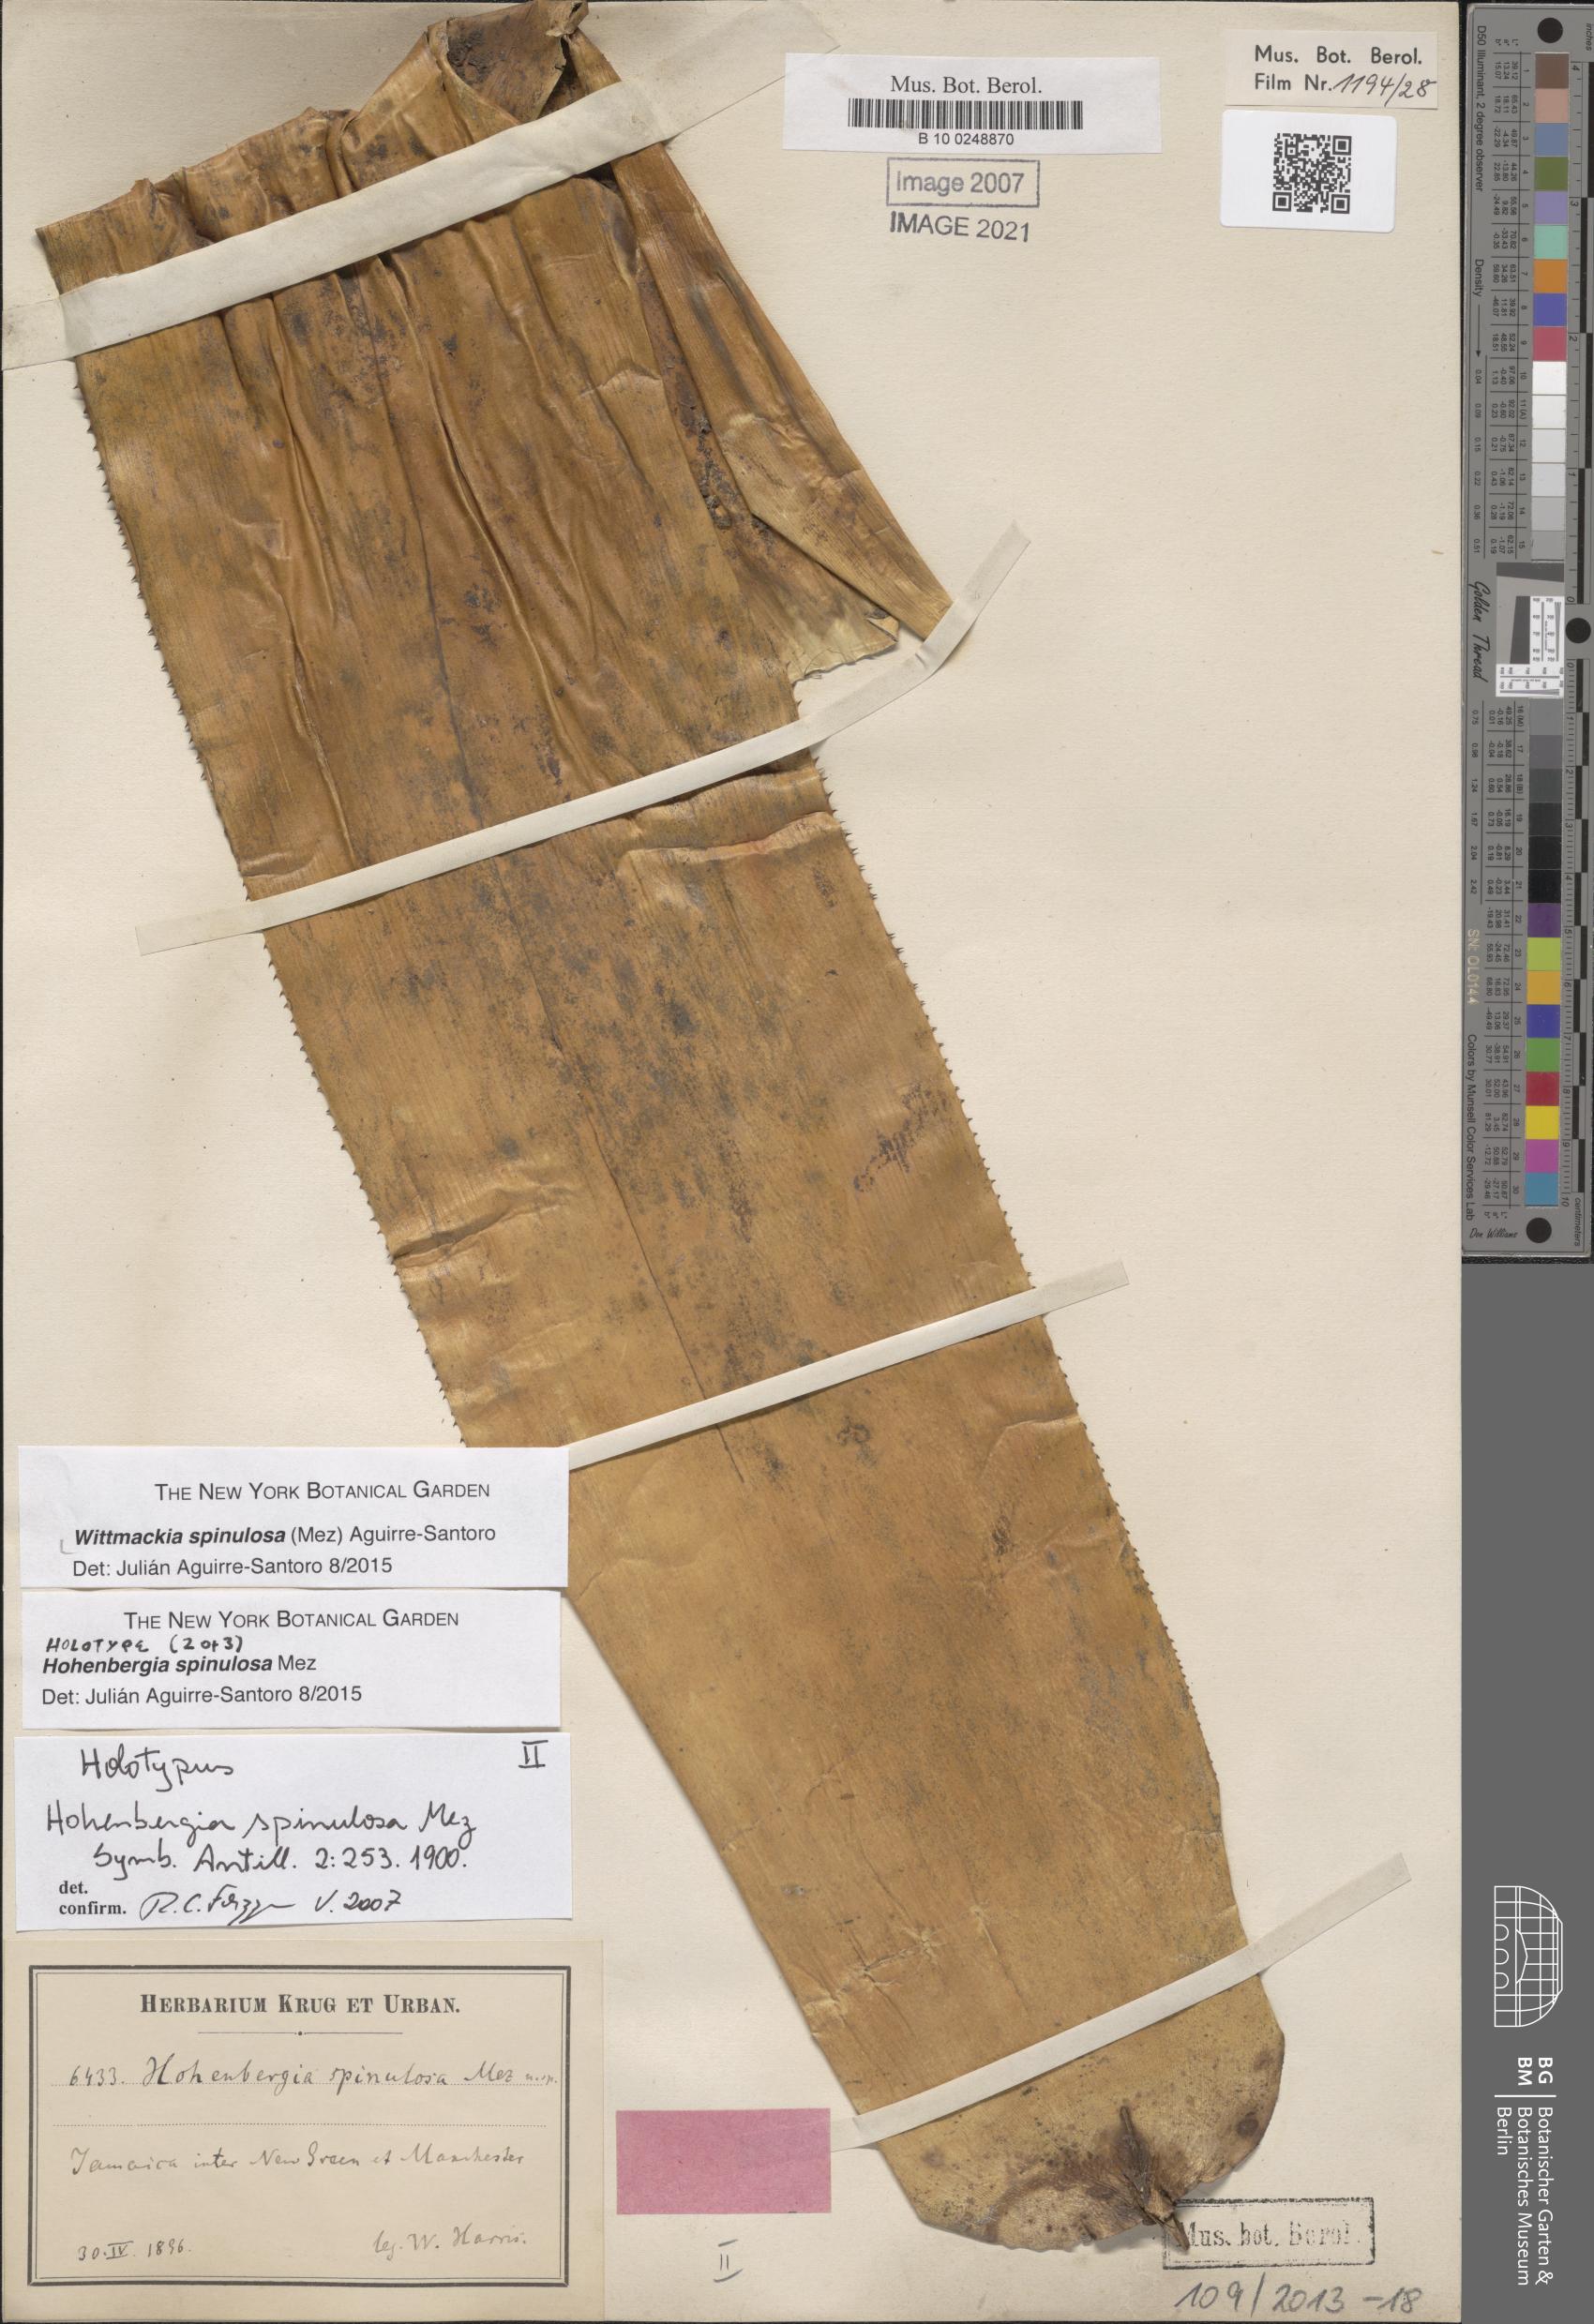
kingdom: Plantae
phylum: Tracheophyta
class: Liliopsida
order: Poales
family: Bromeliaceae
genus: Wittmackia
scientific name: Wittmackia spinulosa
